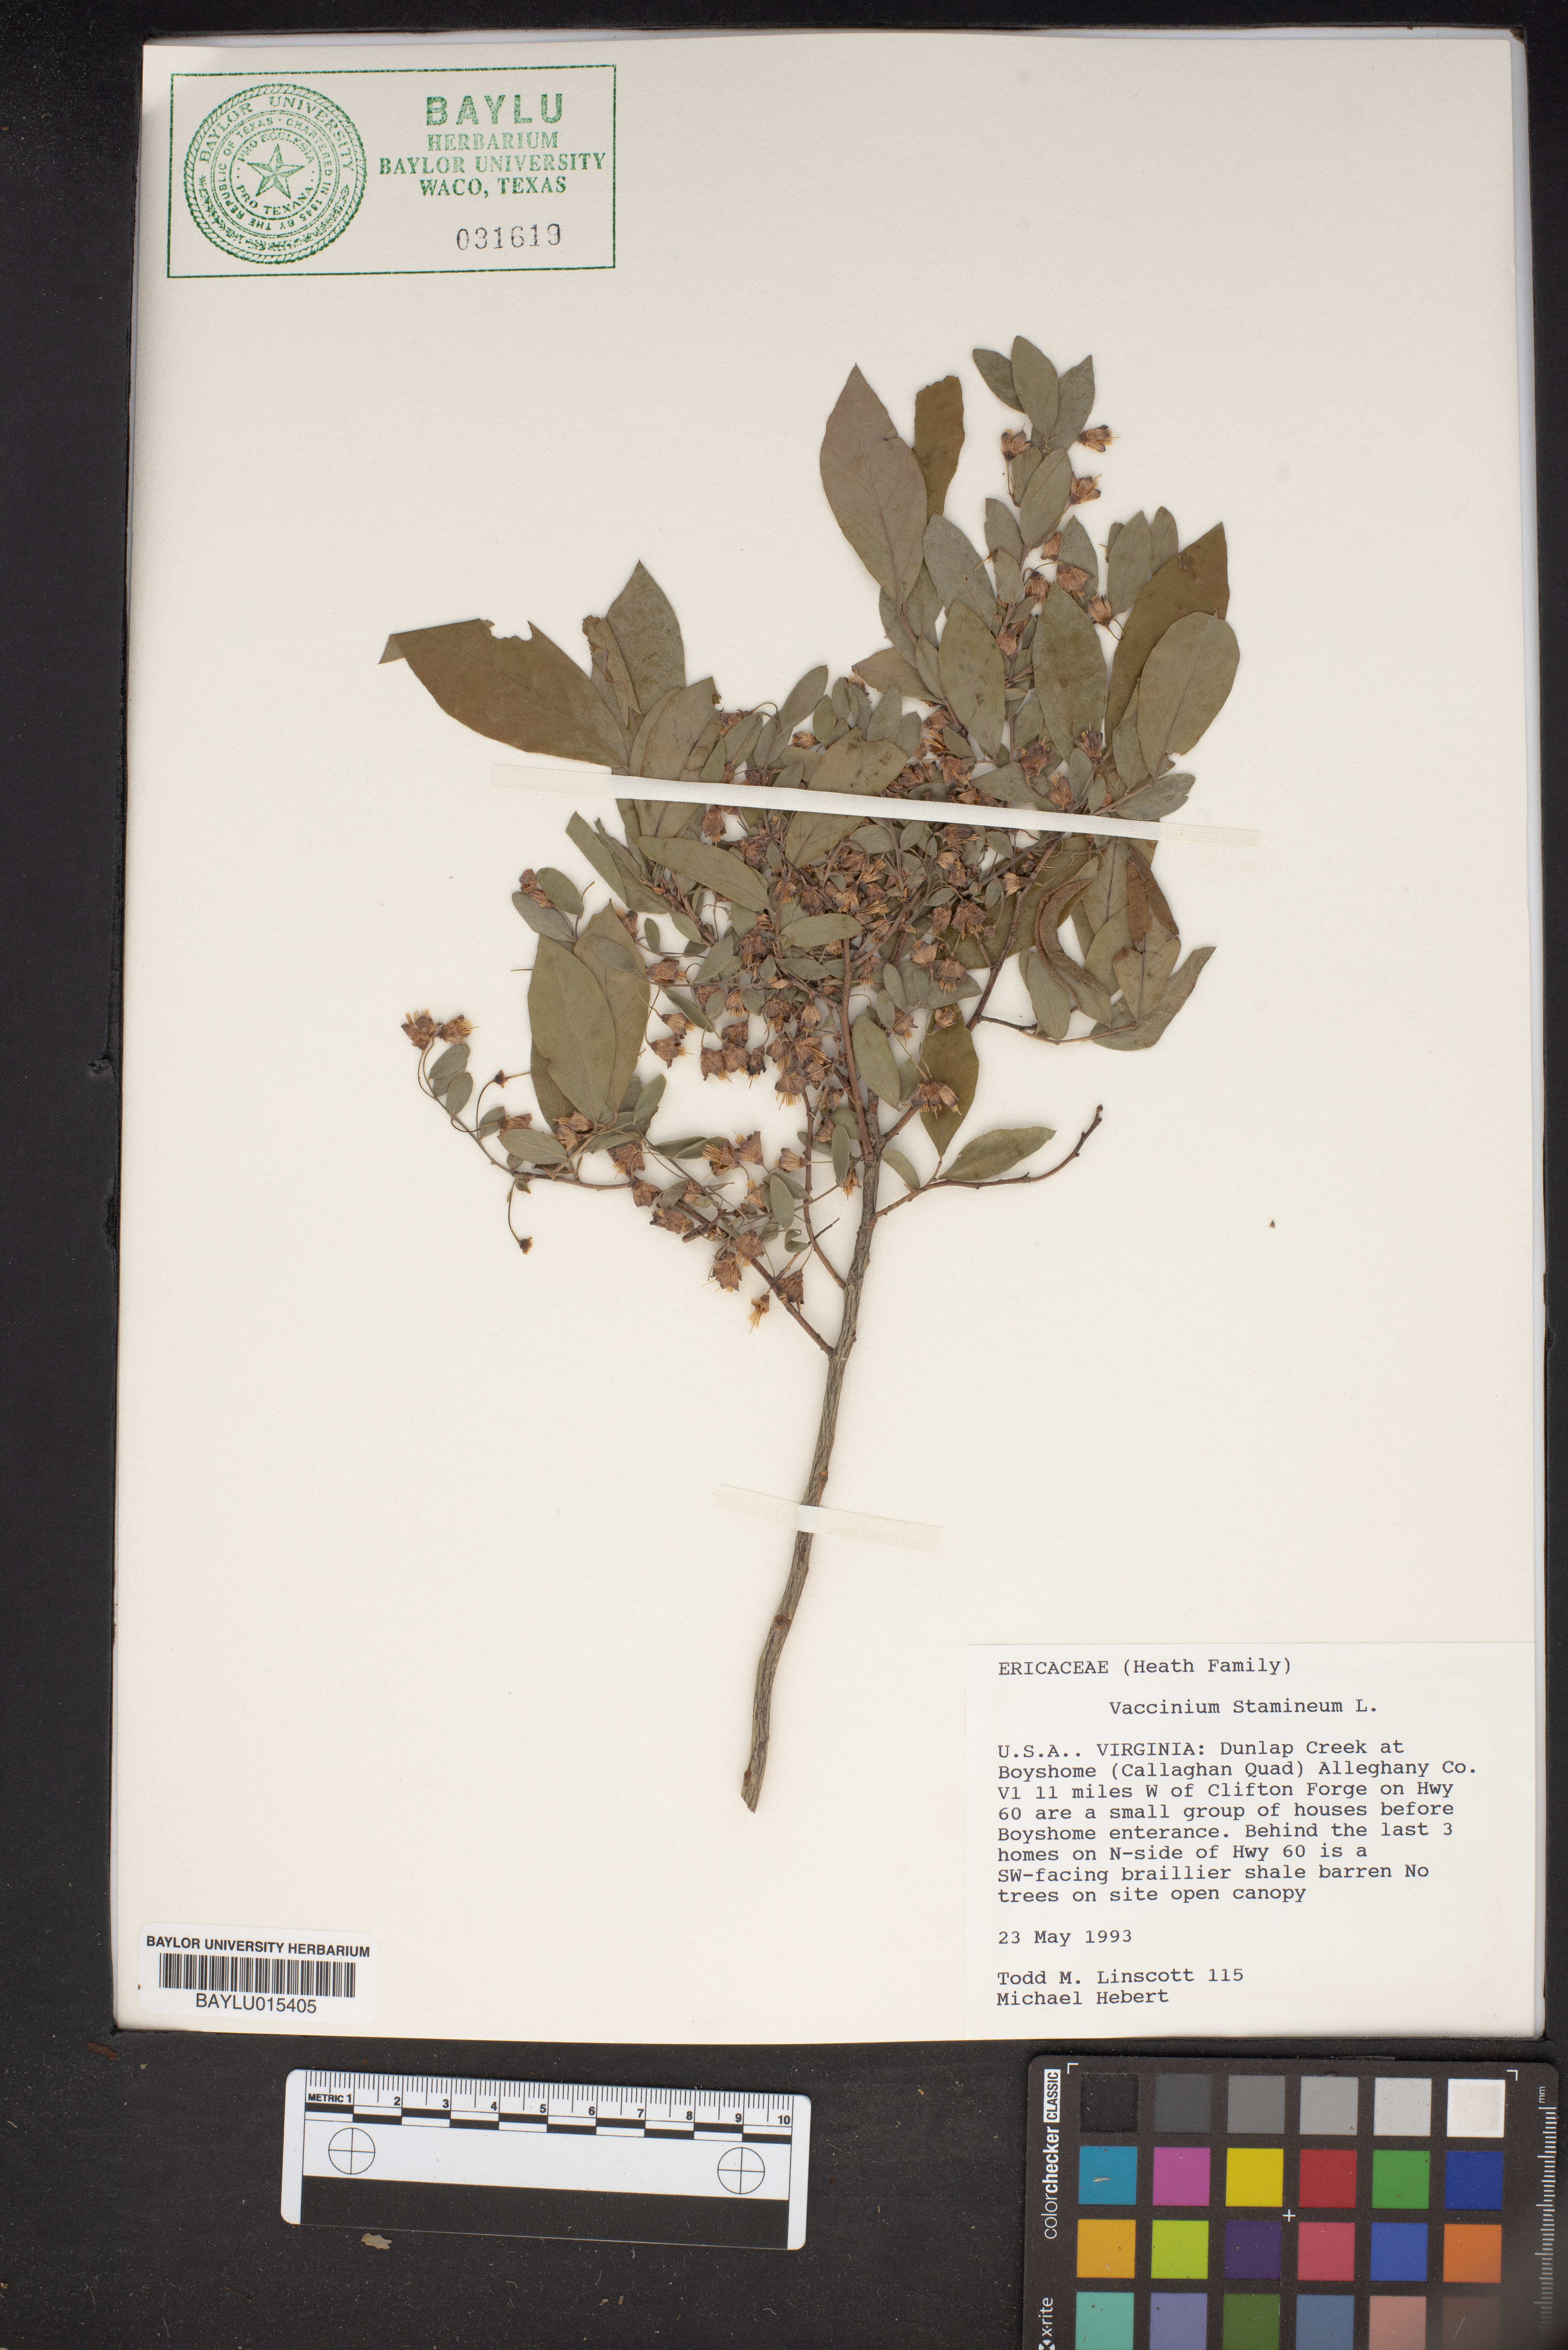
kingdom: Plantae
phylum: Tracheophyta
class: Magnoliopsida
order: Ericales
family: Ericaceae
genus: Vaccinium
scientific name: Vaccinium stamineum
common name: Deerberry
